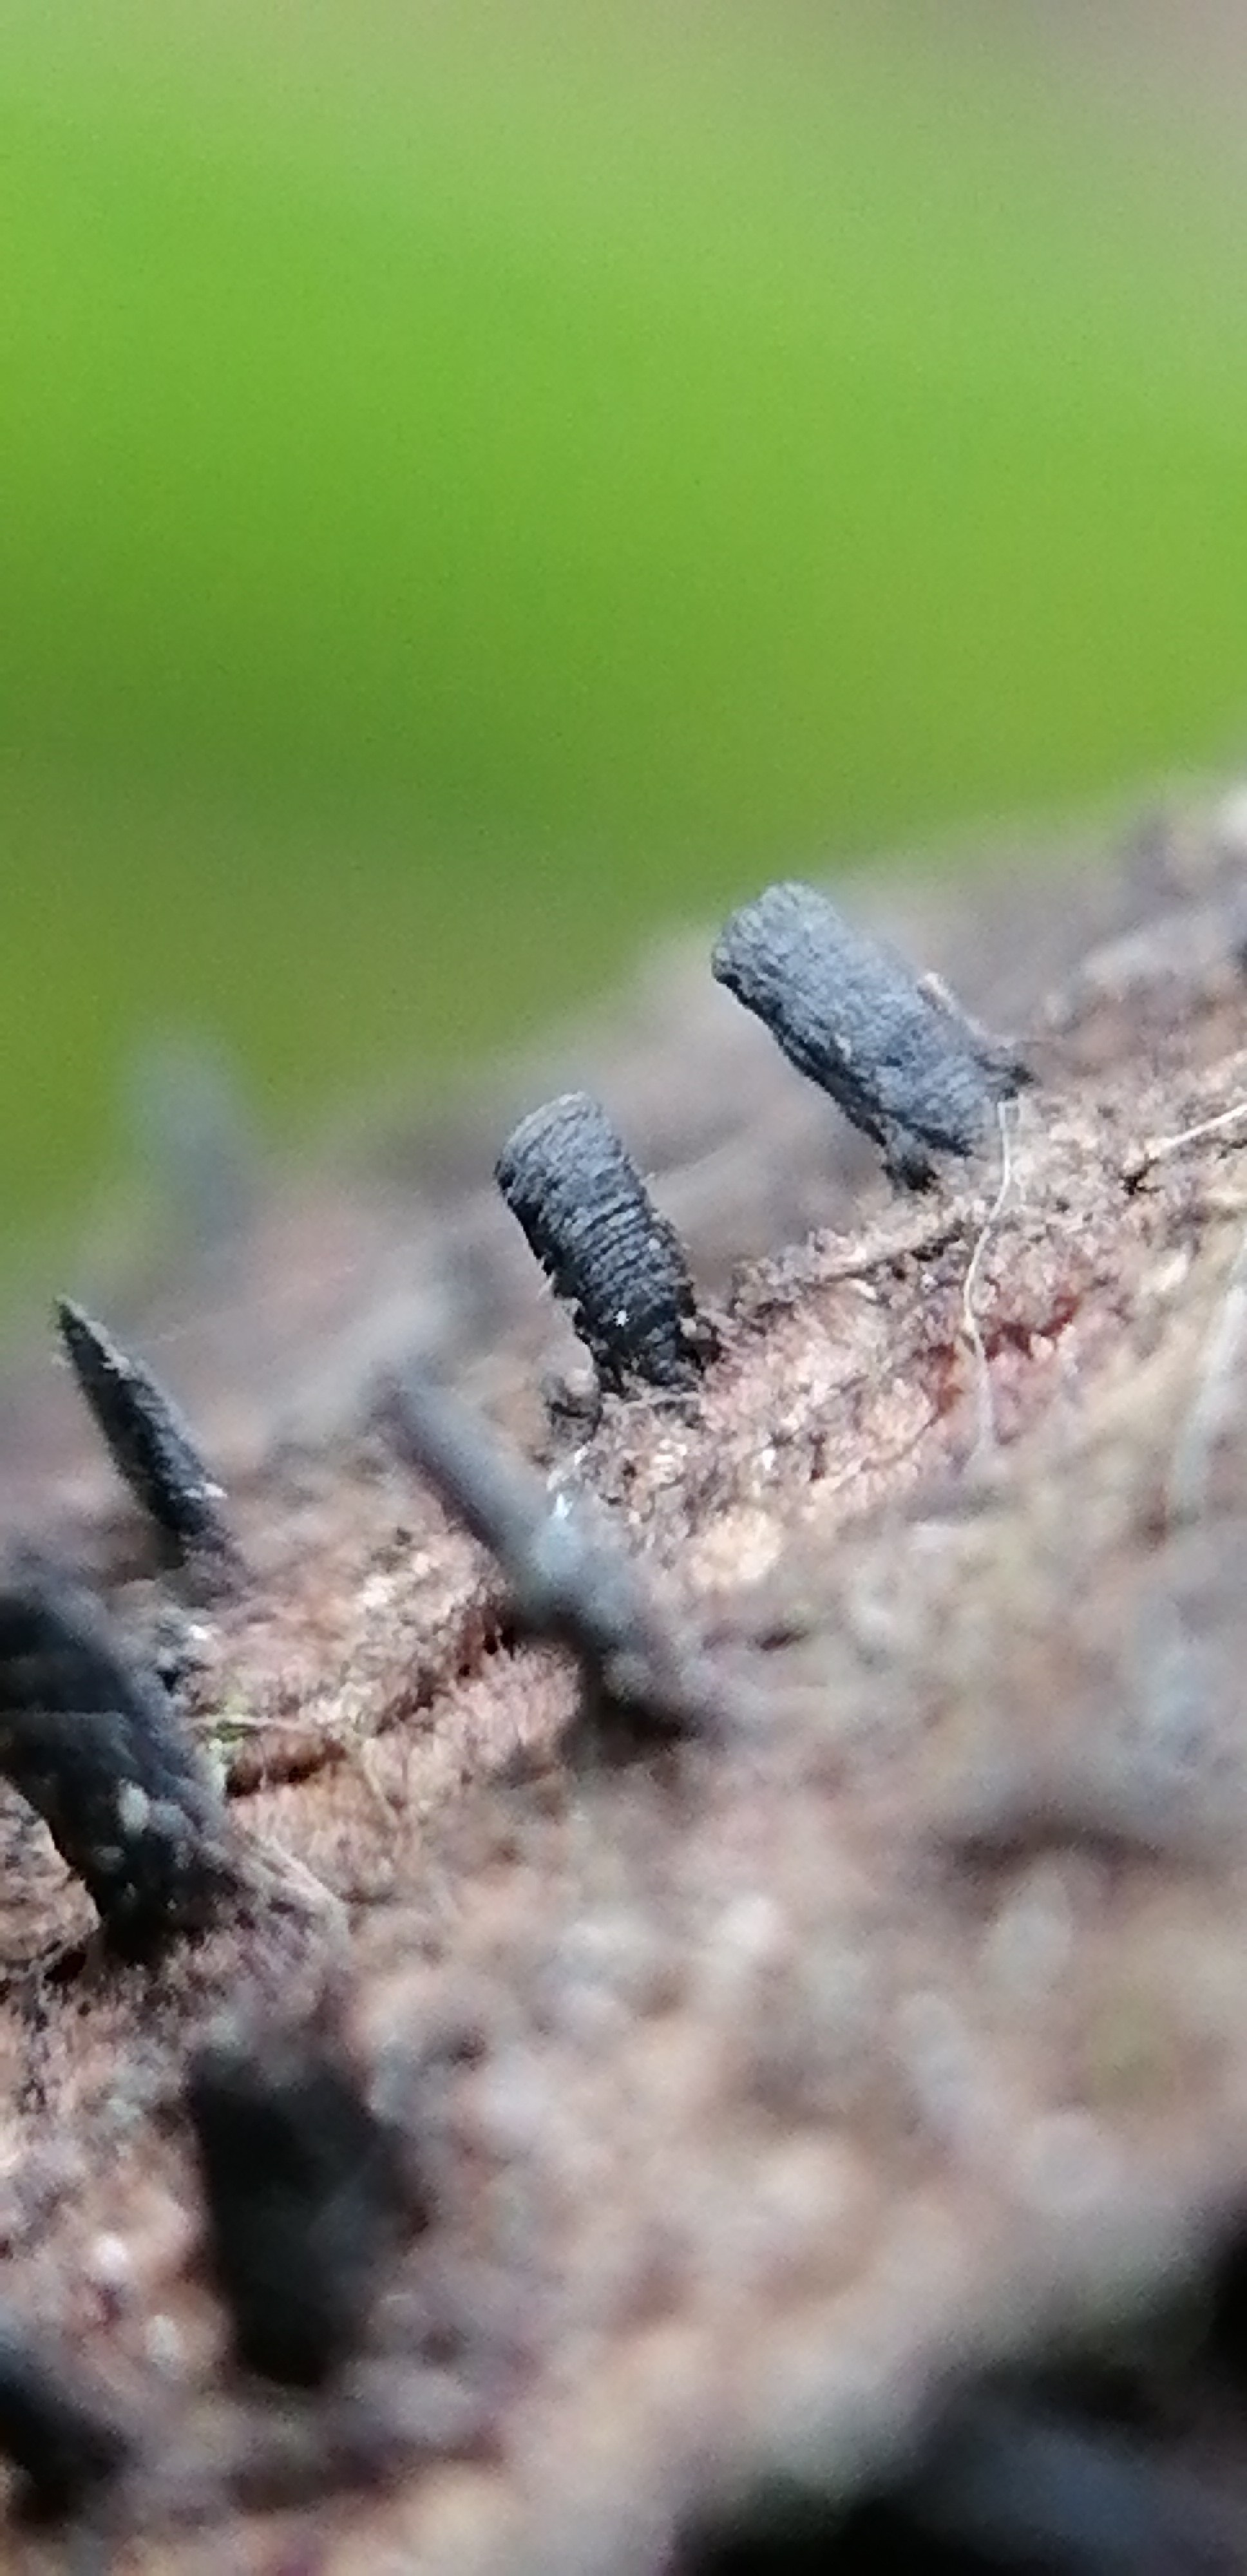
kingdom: Fungi
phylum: Ascomycota
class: Eurotiomycetes
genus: Glyphium
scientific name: Glyphium elatum
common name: kuløkse
